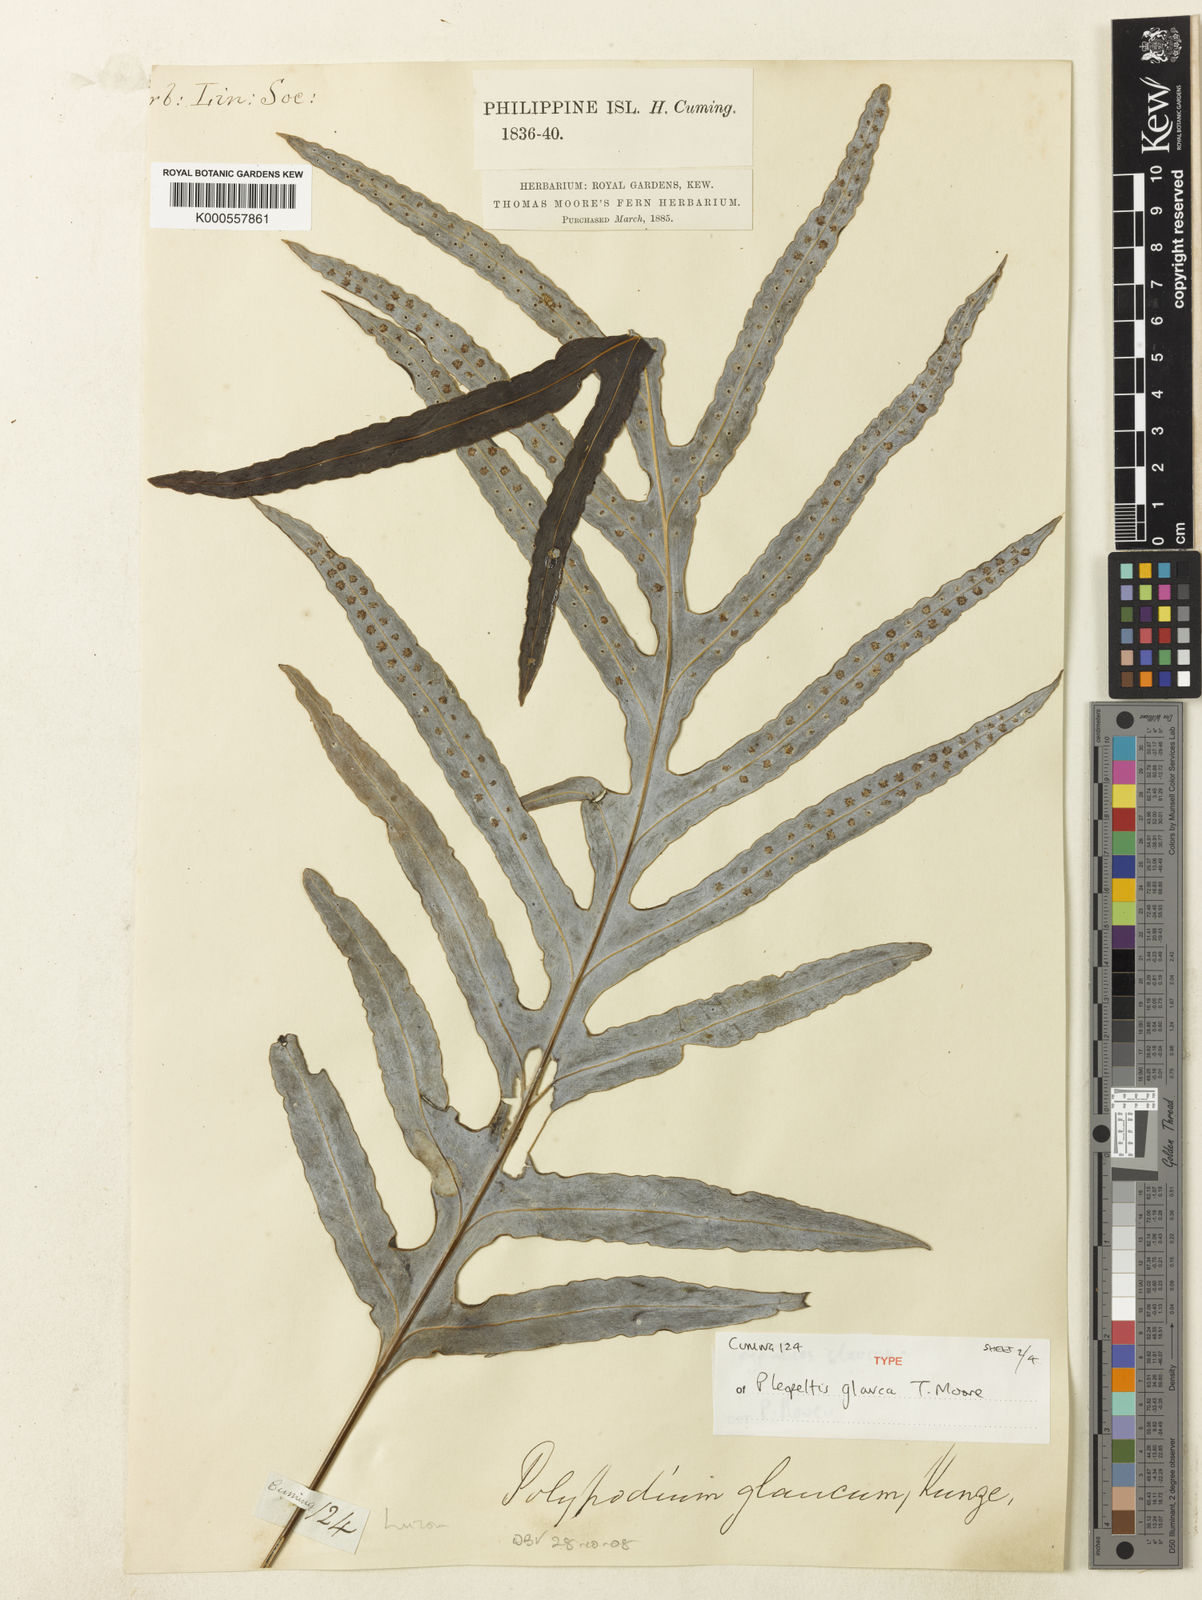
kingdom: Plantae
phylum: Tracheophyta
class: Polypodiopsida
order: Polypodiales
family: Polypodiaceae
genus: Selliguea
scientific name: Selliguea glauca
